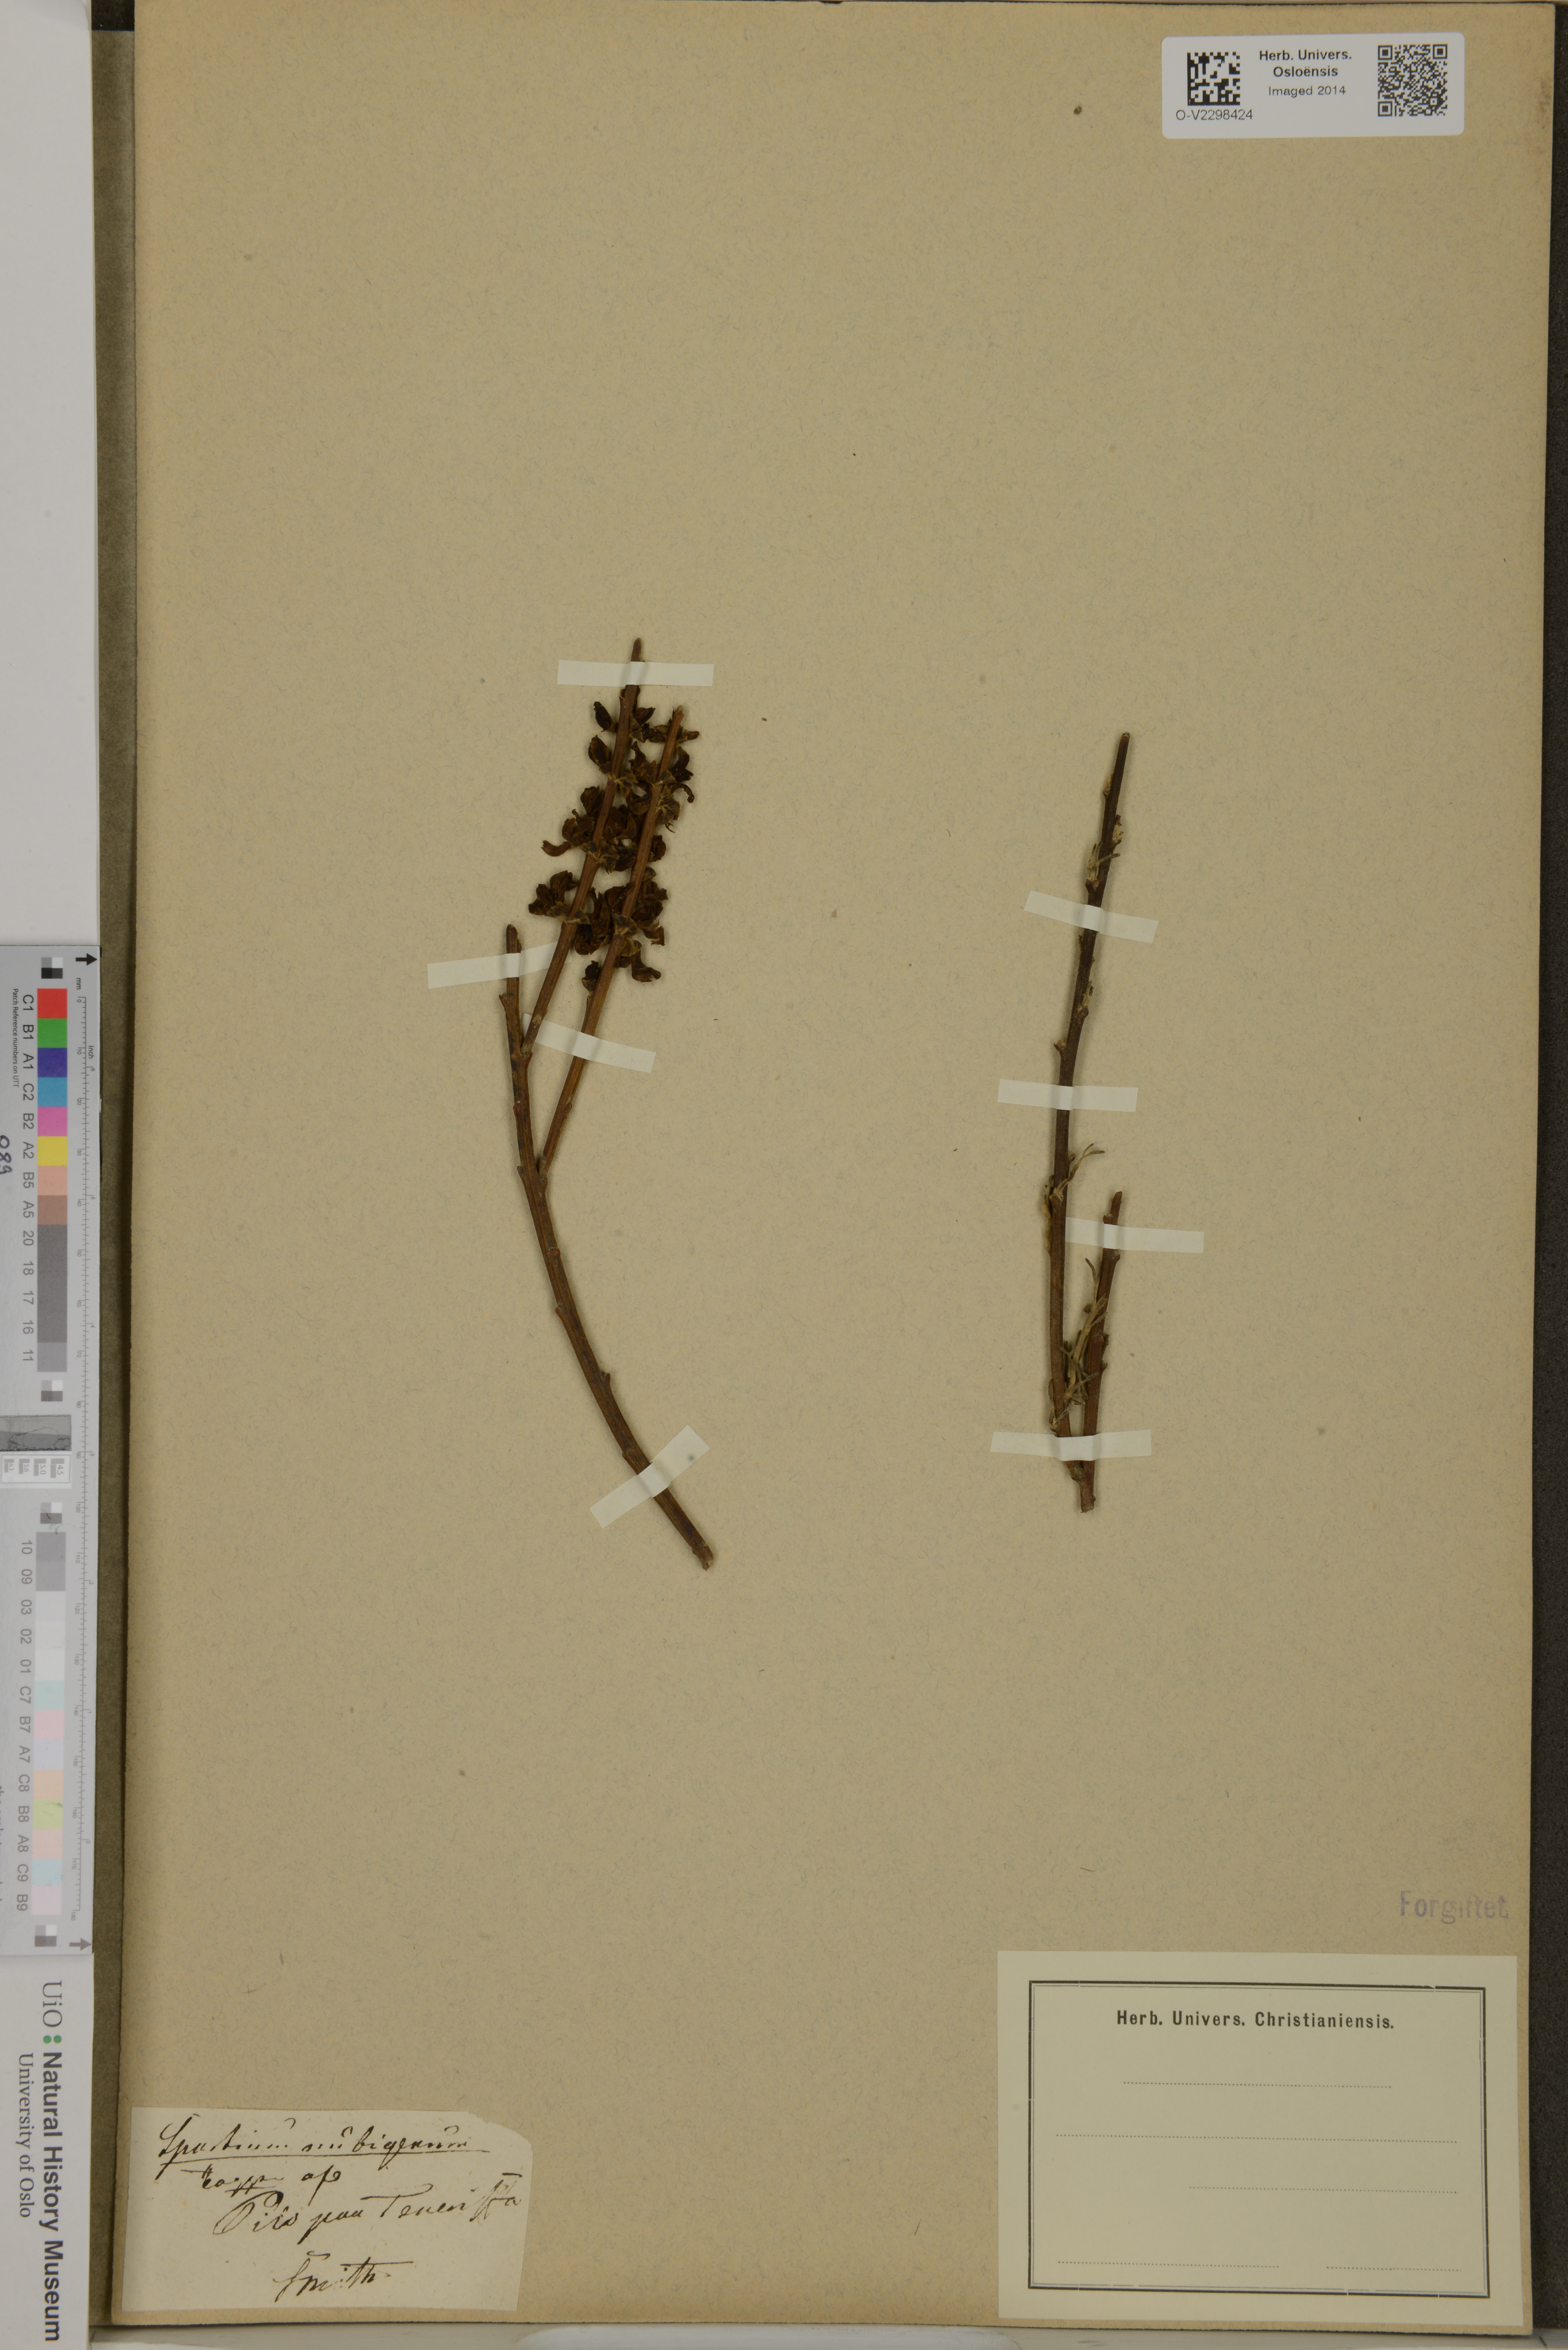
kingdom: Plantae
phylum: Tracheophyta
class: Magnoliopsida
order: Fabales
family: Fabaceae
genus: Cytisus
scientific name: Cytisus supranubius
